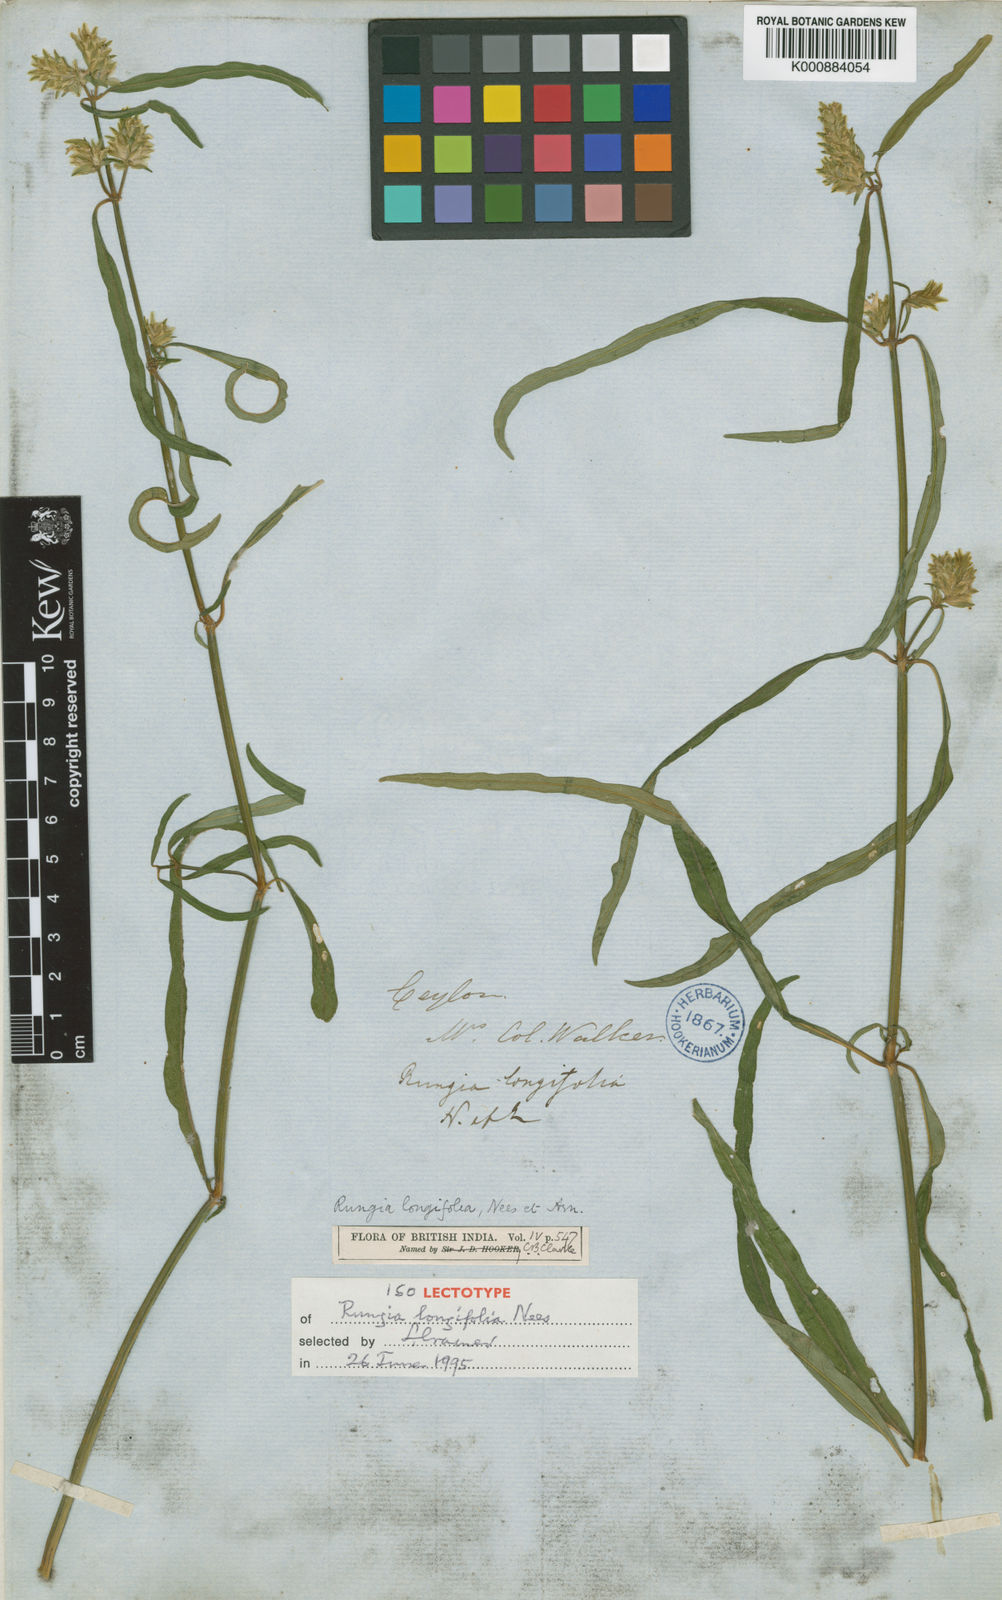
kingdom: Plantae
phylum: Tracheophyta
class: Magnoliopsida
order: Lamiales
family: Acanthaceae
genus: Justicia
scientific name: Justicia
